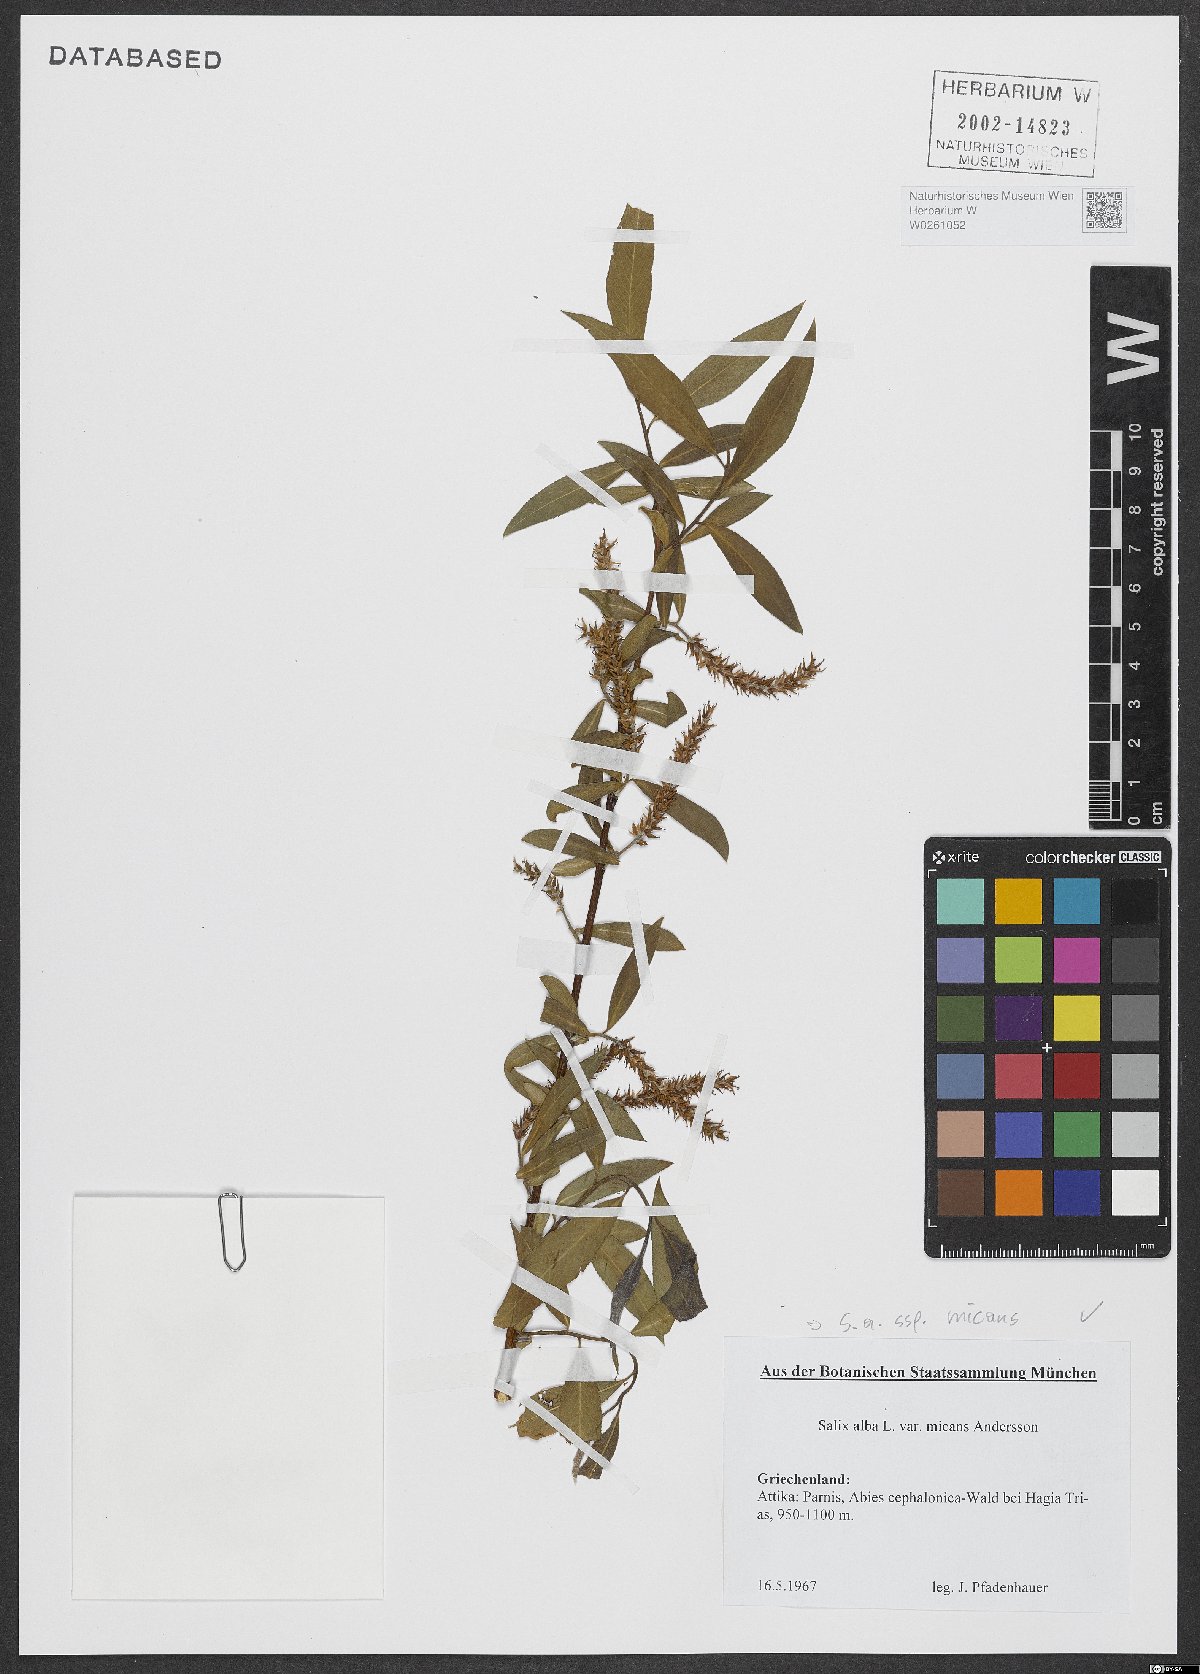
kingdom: Plantae
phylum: Tracheophyta
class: Magnoliopsida
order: Malpighiales
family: Salicaceae
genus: Salix
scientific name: Salix alba
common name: White willow
